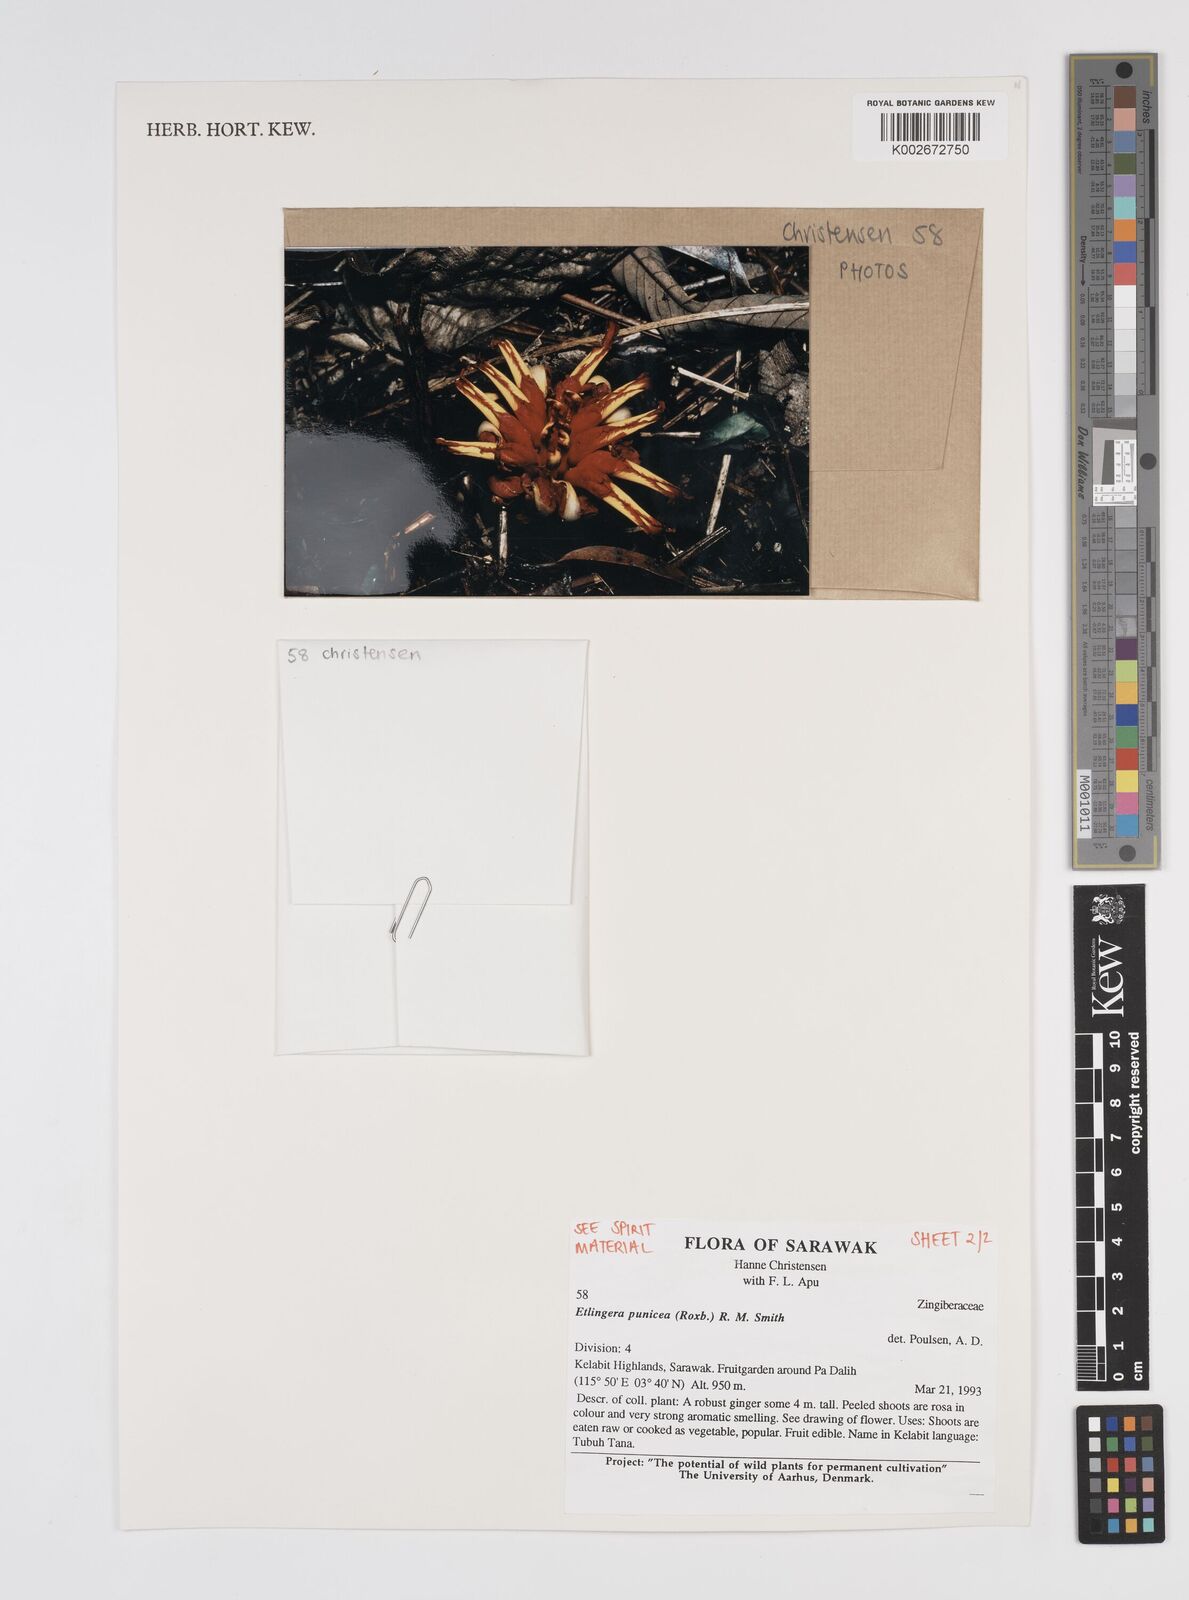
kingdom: Plantae
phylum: Tracheophyta
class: Liliopsida
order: Zingiberales
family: Zingiberaceae
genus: Etlingera
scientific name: Etlingera punicea
